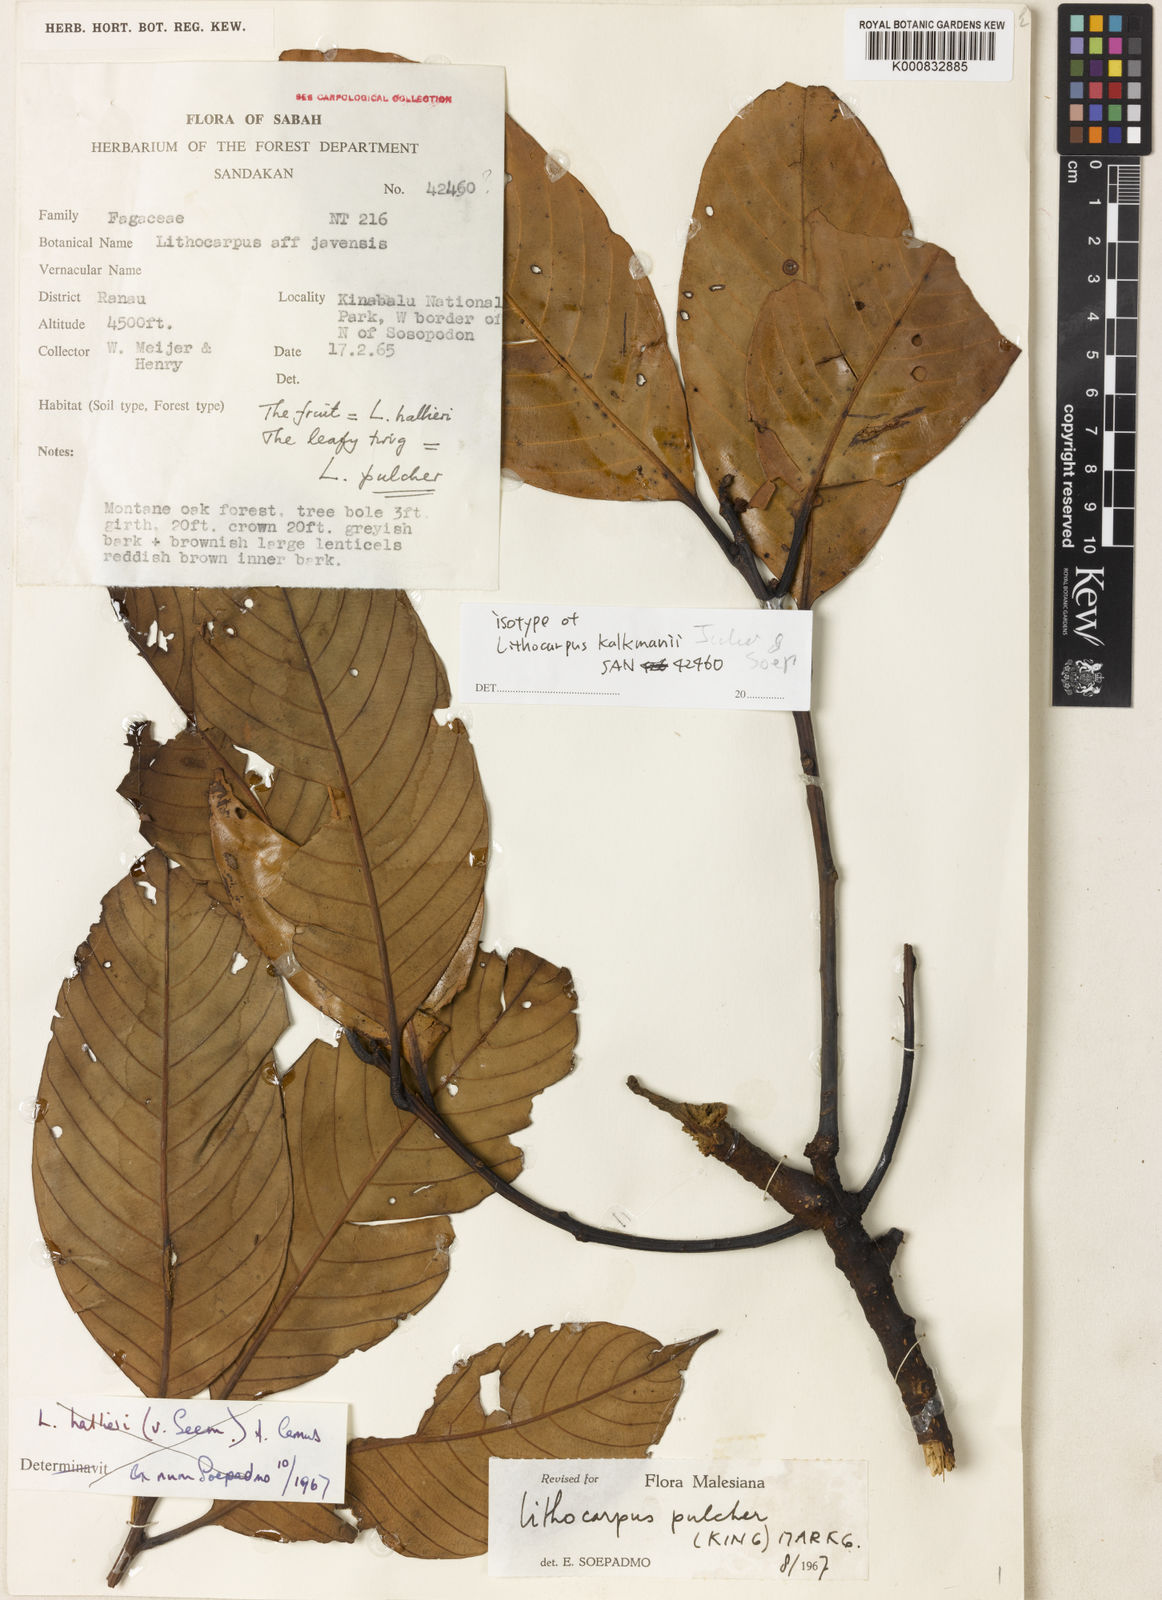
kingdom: Plantae
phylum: Tracheophyta
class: Magnoliopsida
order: Fagales
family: Fagaceae
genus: Lithocarpus
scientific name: Lithocarpus kalkmanii
